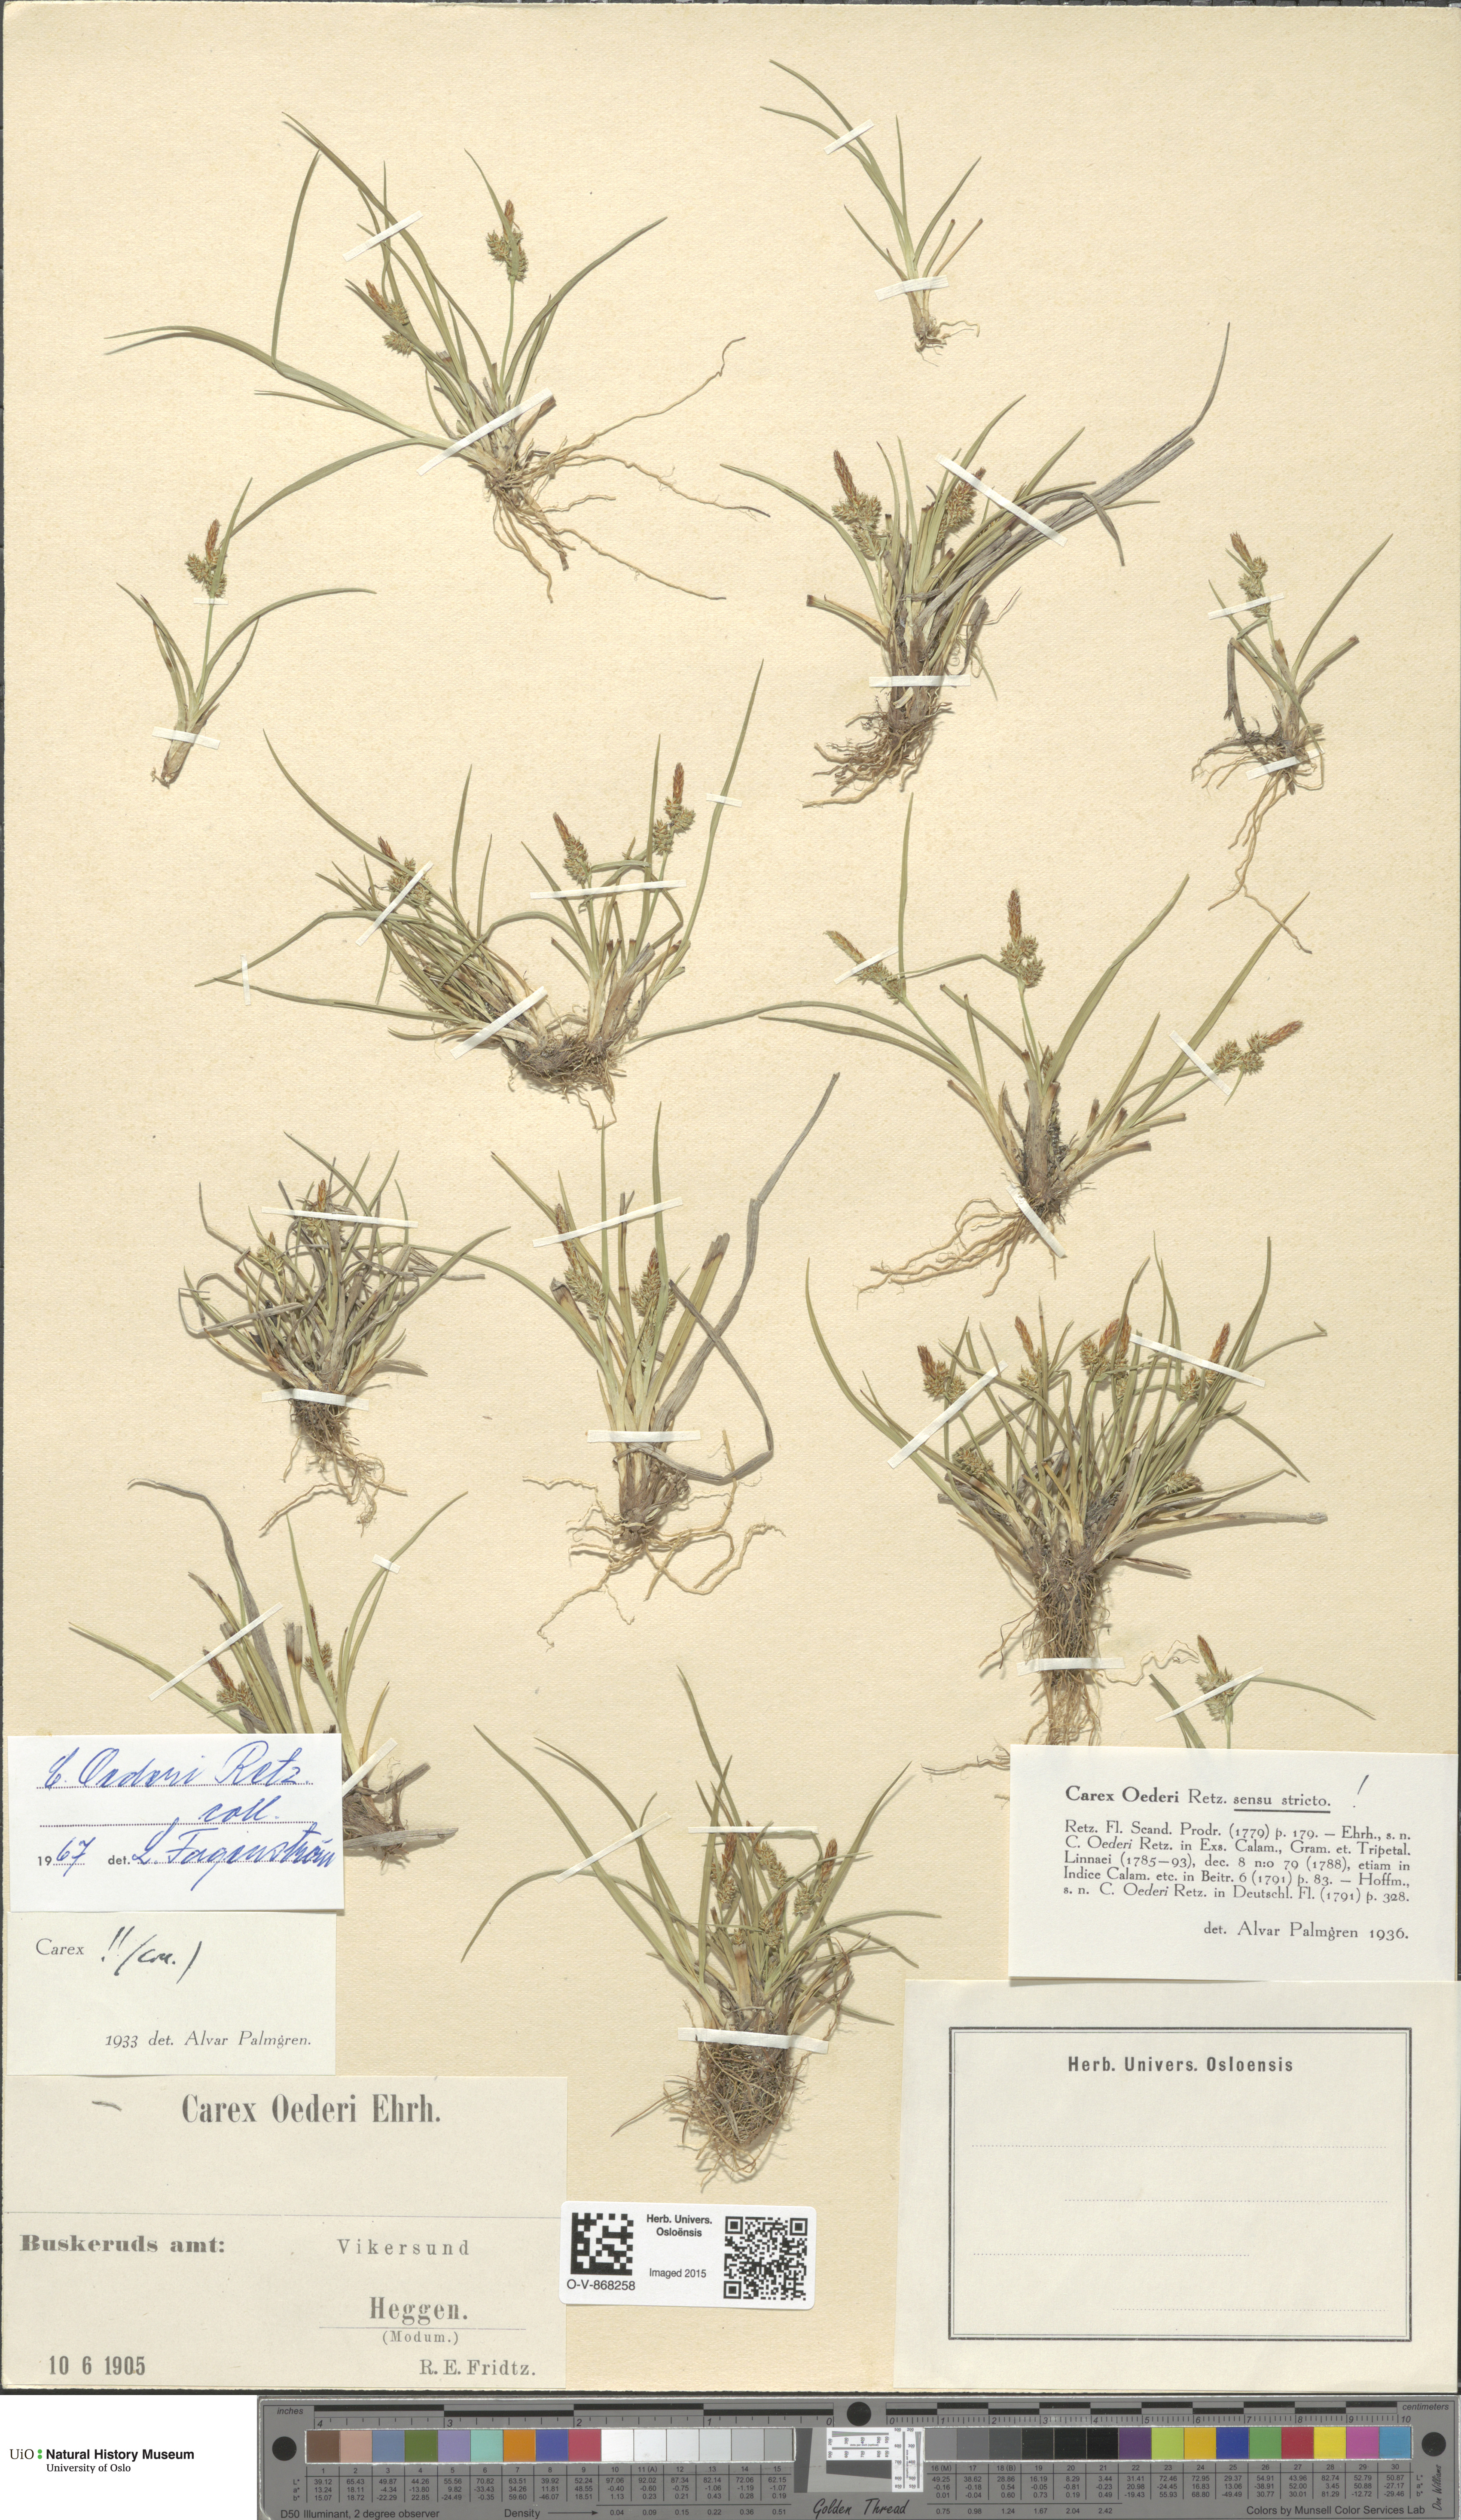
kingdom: Plantae
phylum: Tracheophyta
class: Liliopsida
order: Poales
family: Cyperaceae
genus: Carex
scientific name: Carex oederi
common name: Common & small-fruited yellow-sedge
